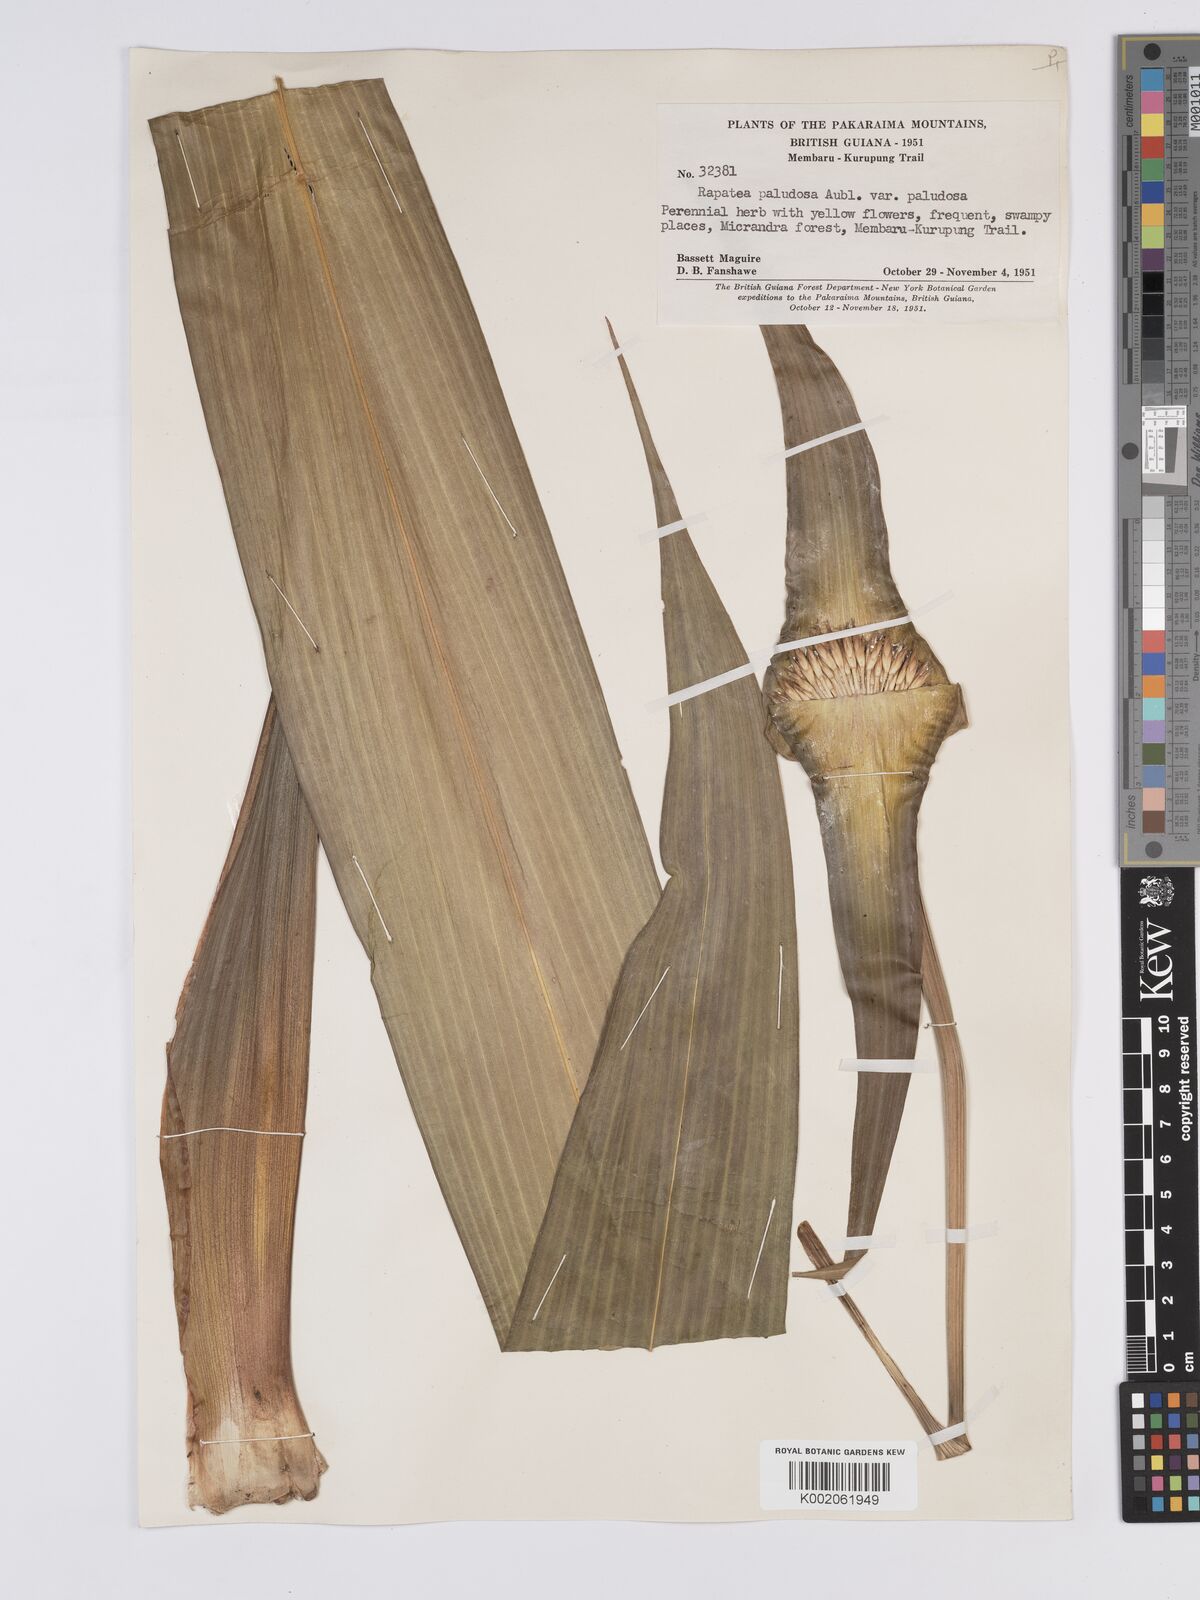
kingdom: Plantae
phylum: Tracheophyta
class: Liliopsida
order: Poales
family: Rapateaceae
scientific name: Rapateaceae
